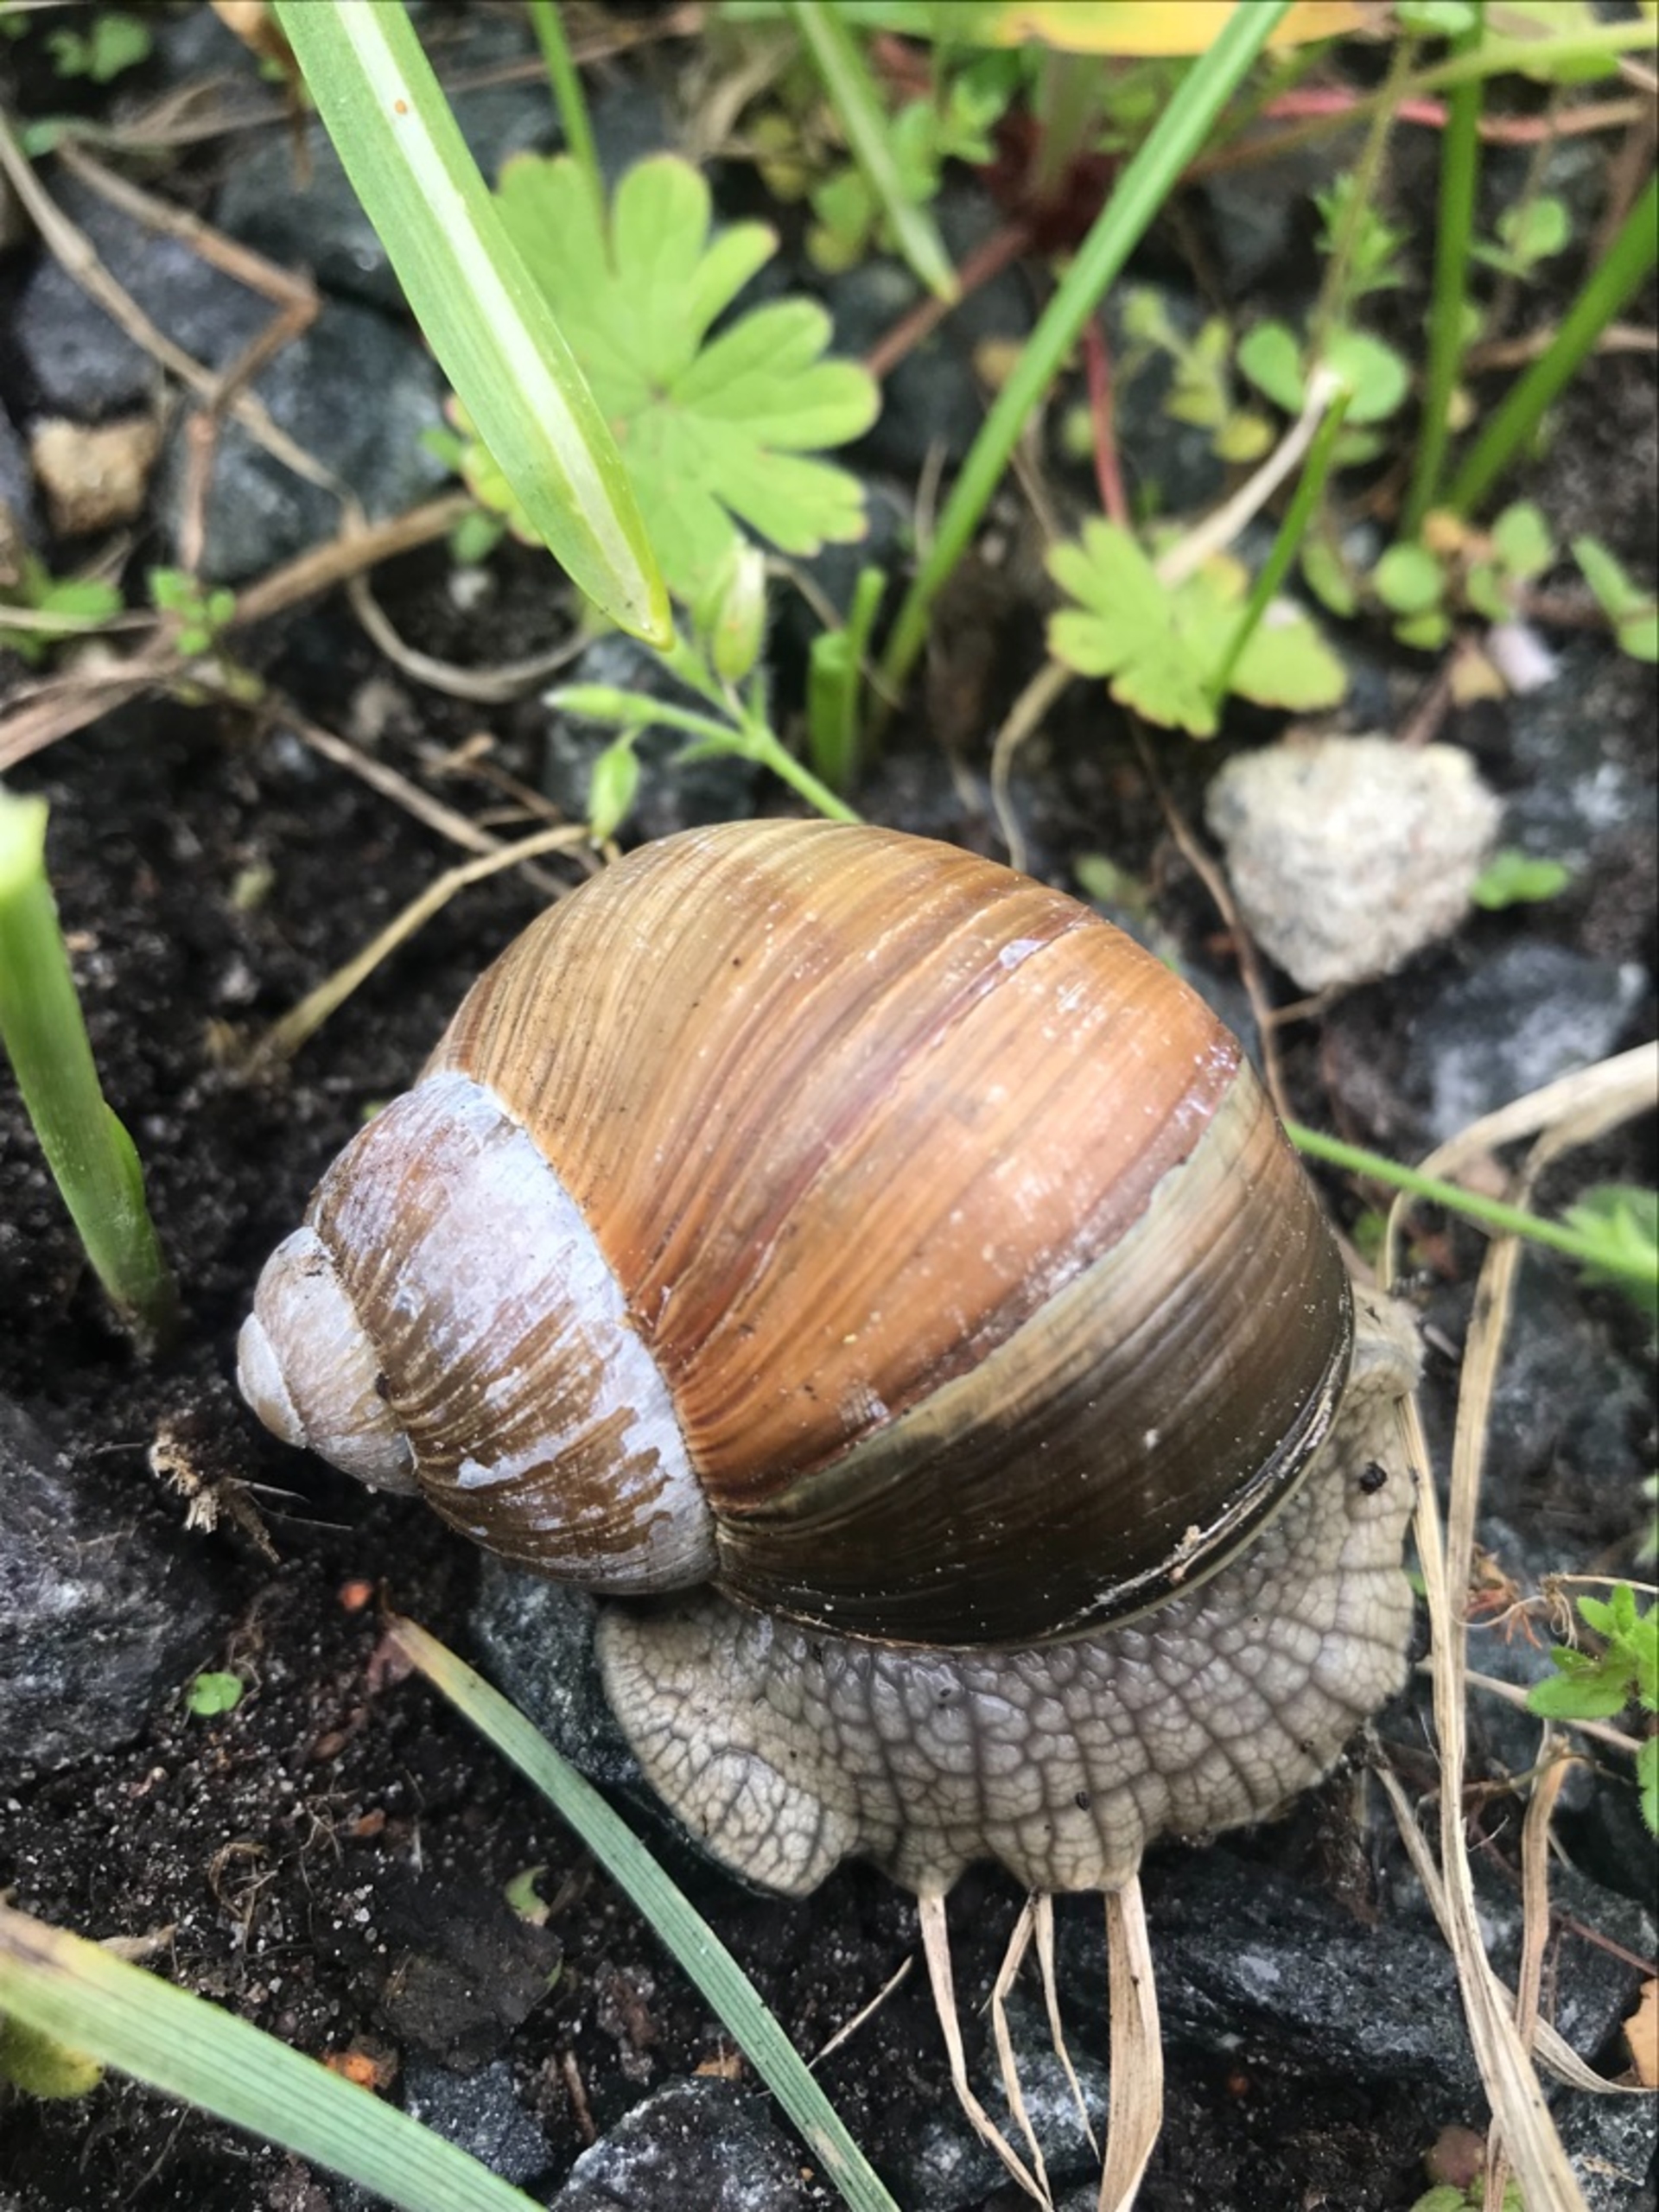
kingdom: Animalia
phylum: Mollusca
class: Gastropoda
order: Stylommatophora
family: Helicidae
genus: Helix
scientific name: Helix pomatia
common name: Vinbjergsnegl
